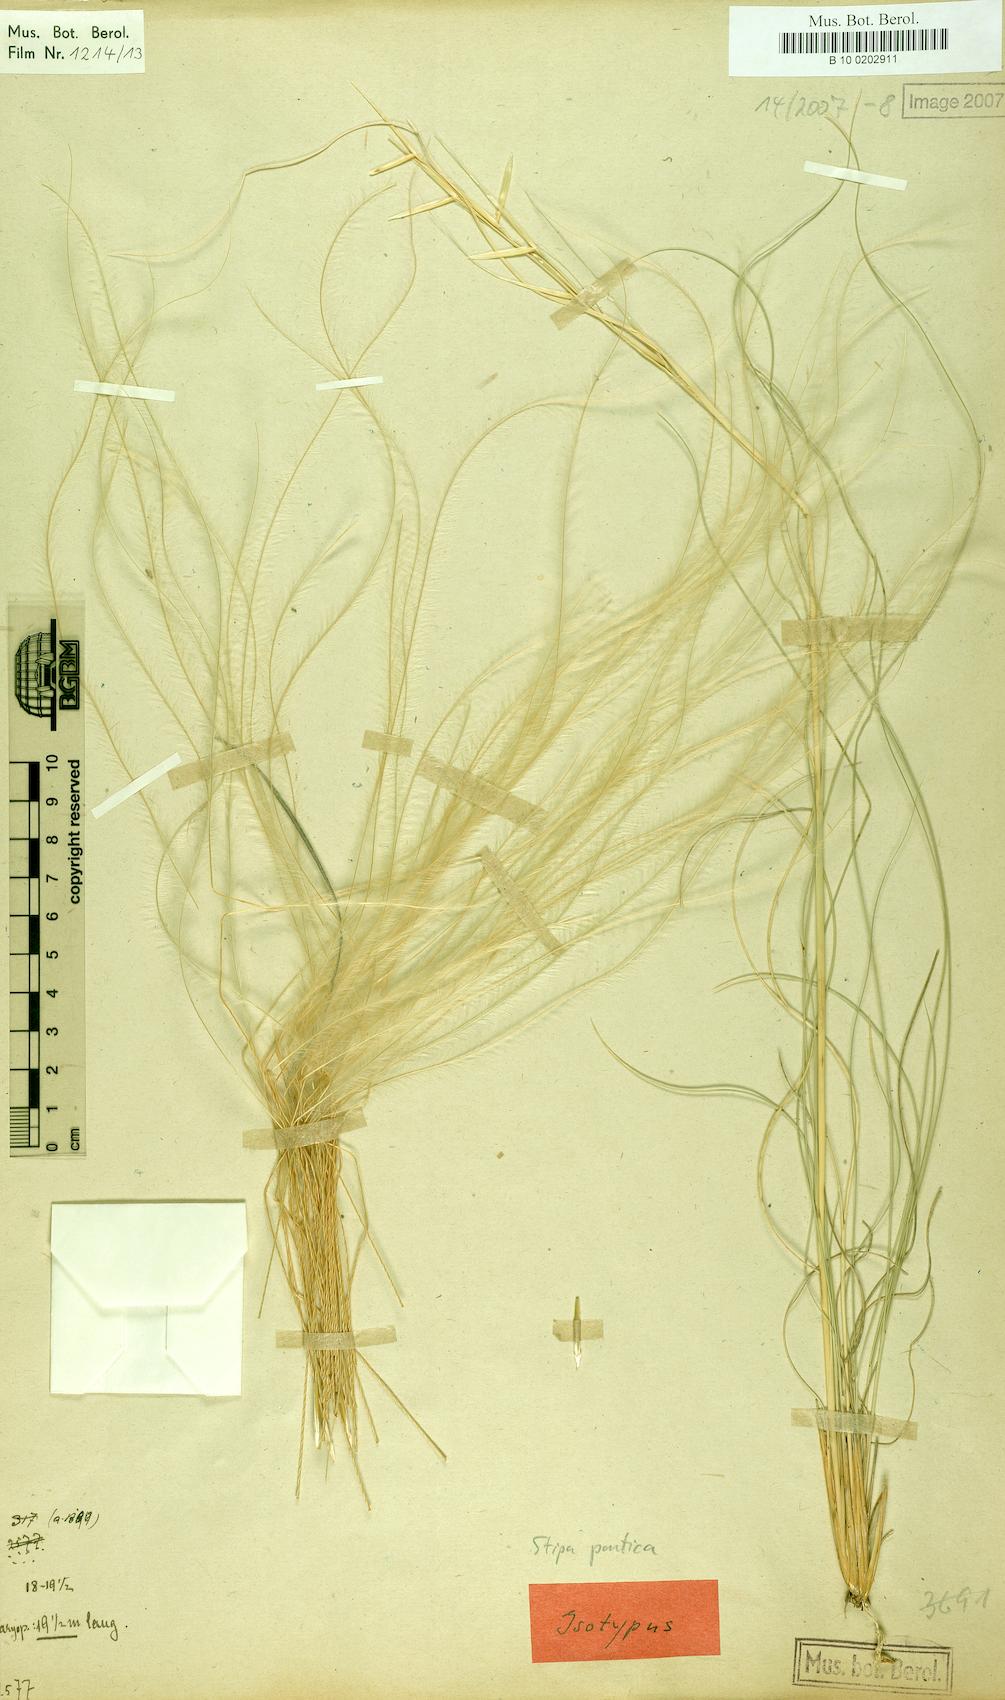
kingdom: Plantae
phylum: Tracheophyta
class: Liliopsida
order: Poales
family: Poaceae
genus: Stipa
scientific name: Stipa pontica
